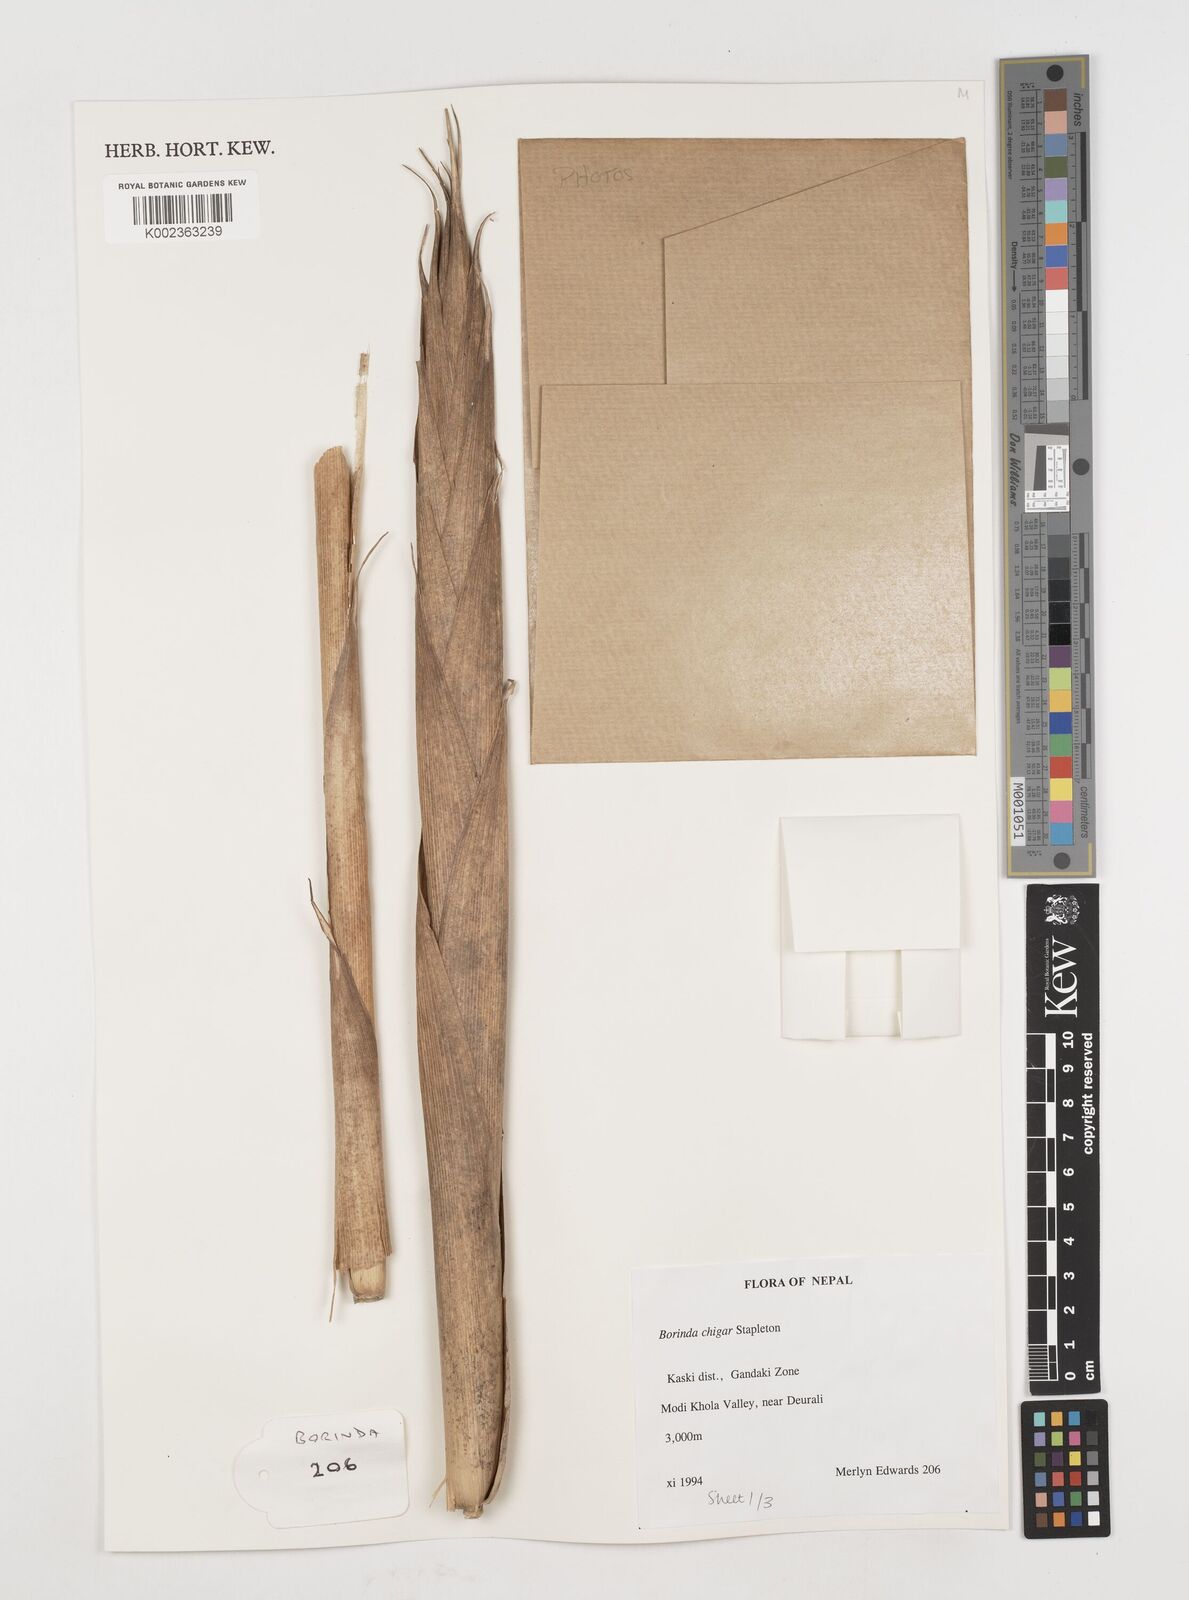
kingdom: Plantae
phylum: Tracheophyta
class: Liliopsida
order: Poales
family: Poaceae
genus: Fargesia
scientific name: Fargesia
